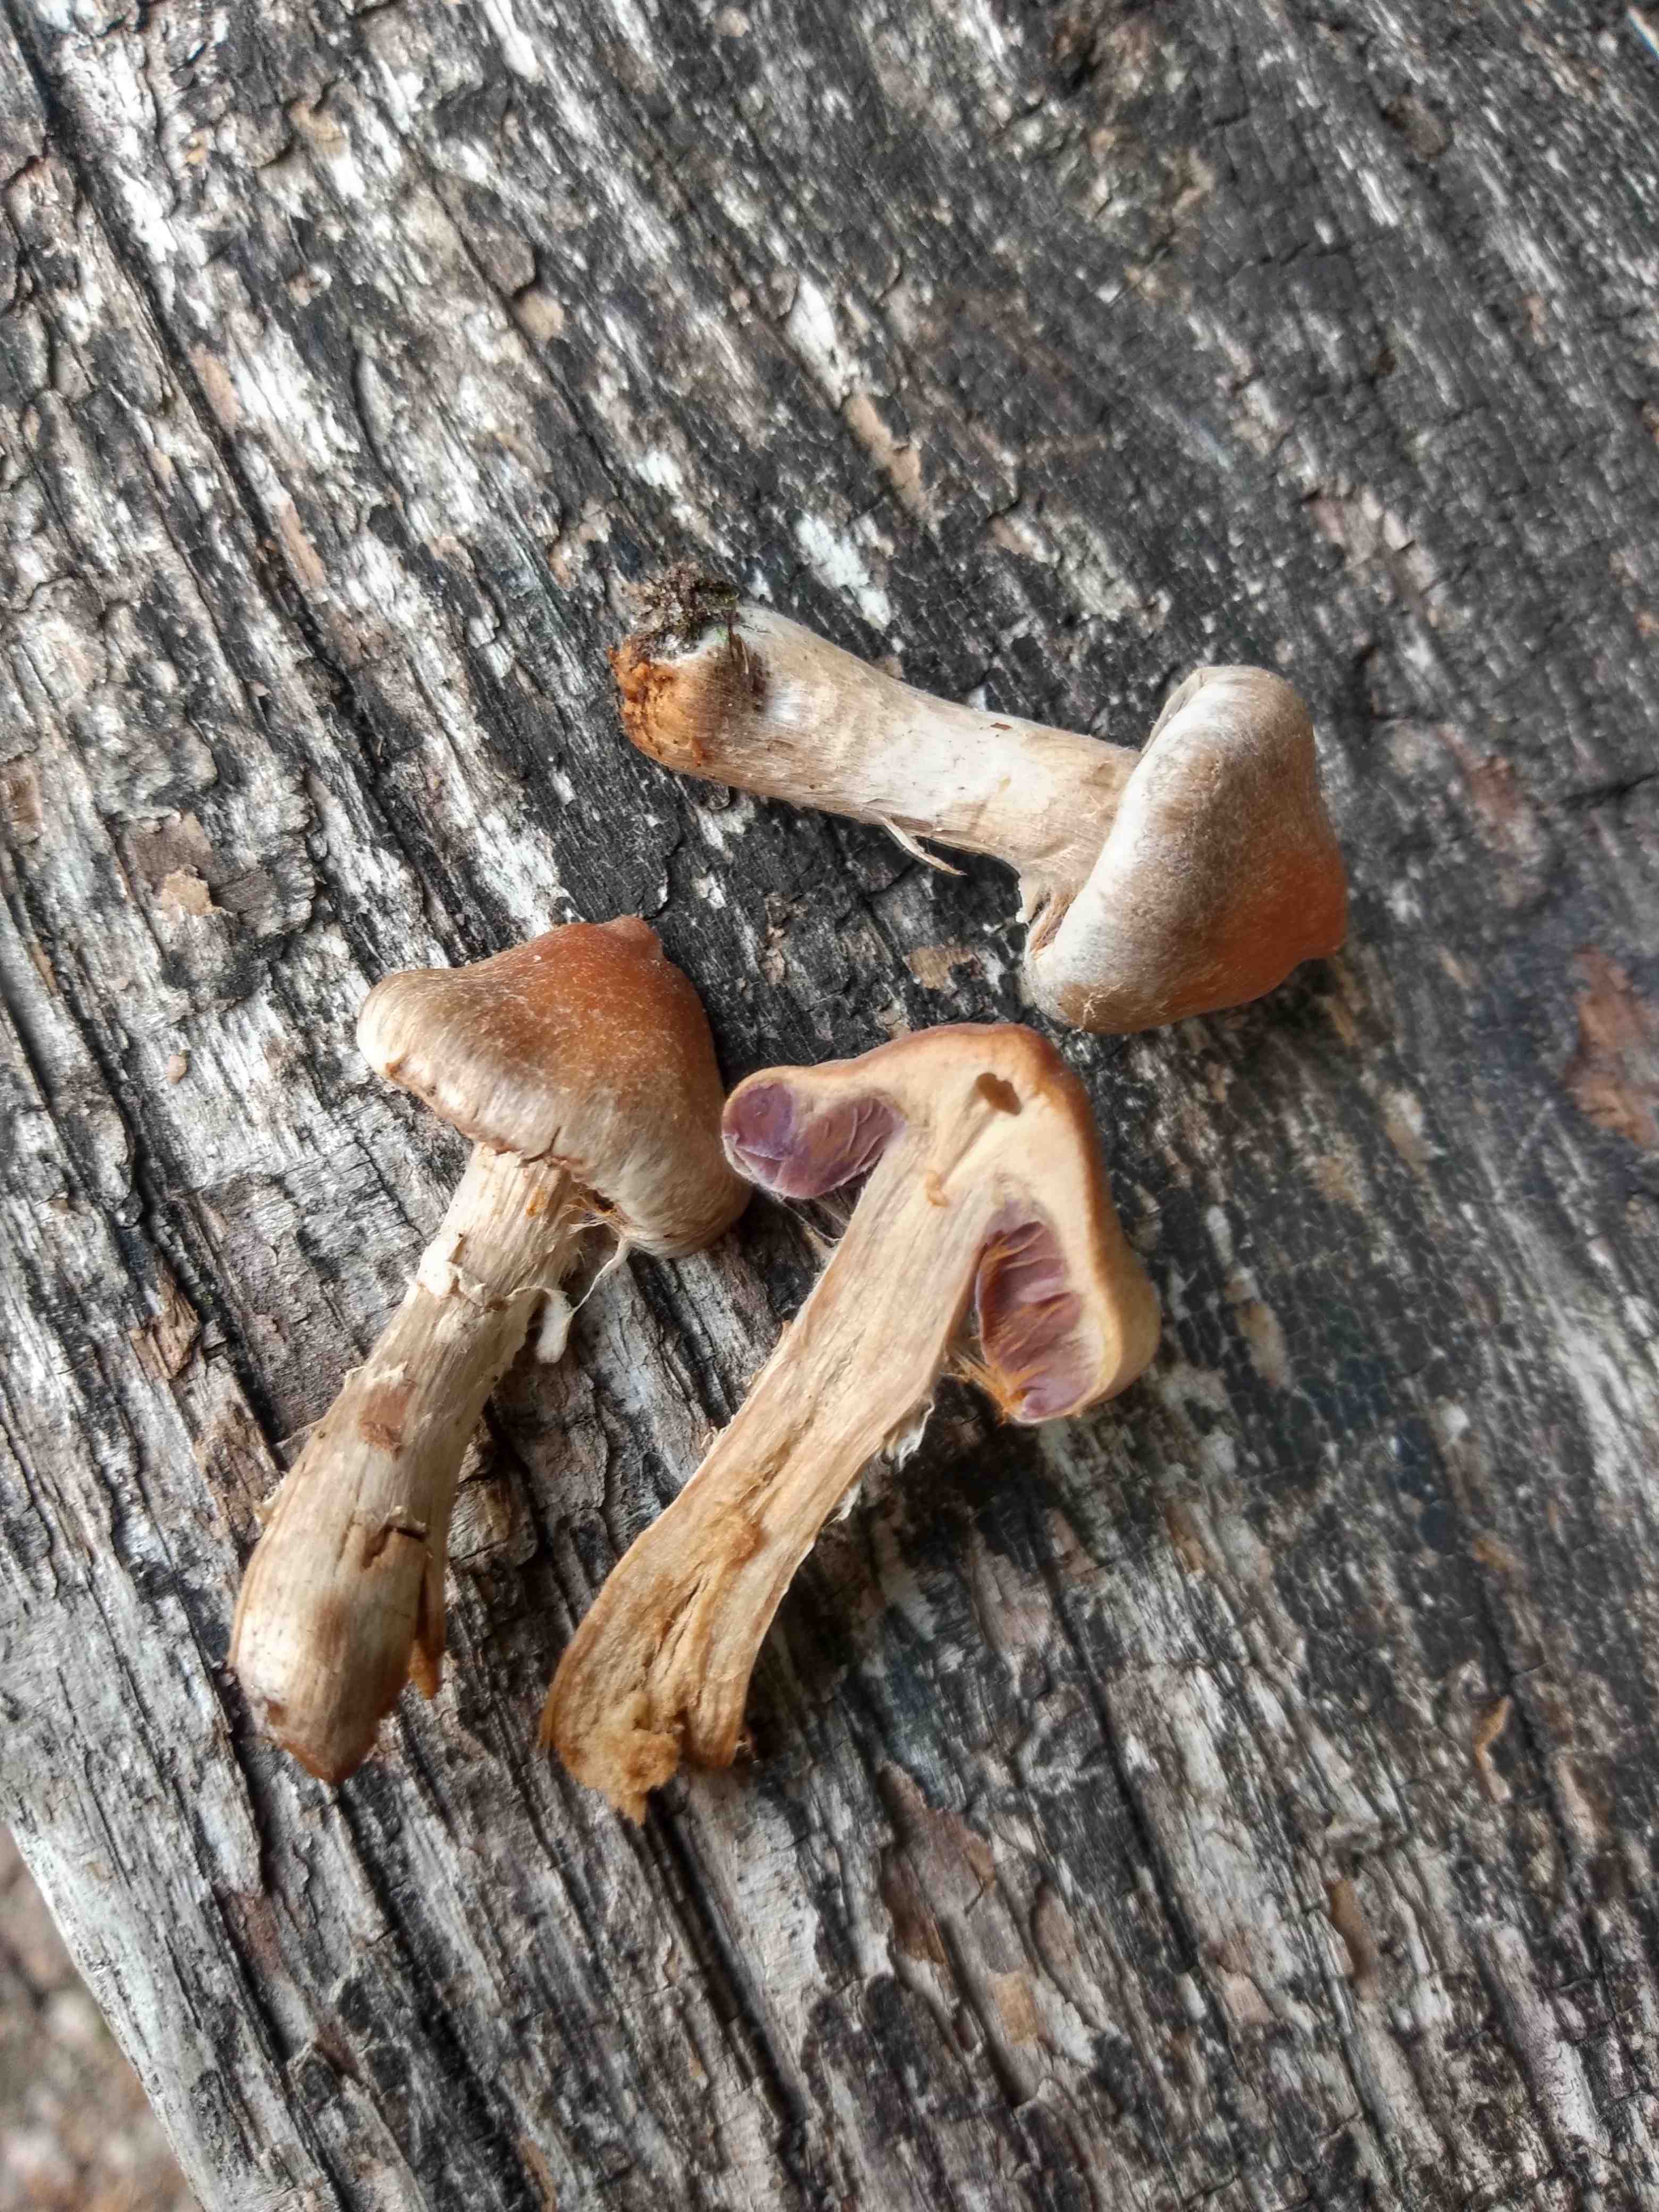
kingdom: Fungi
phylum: Basidiomycota
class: Agaricomycetes
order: Agaricales
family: Cortinariaceae
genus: Cortinarius
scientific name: Cortinarius
